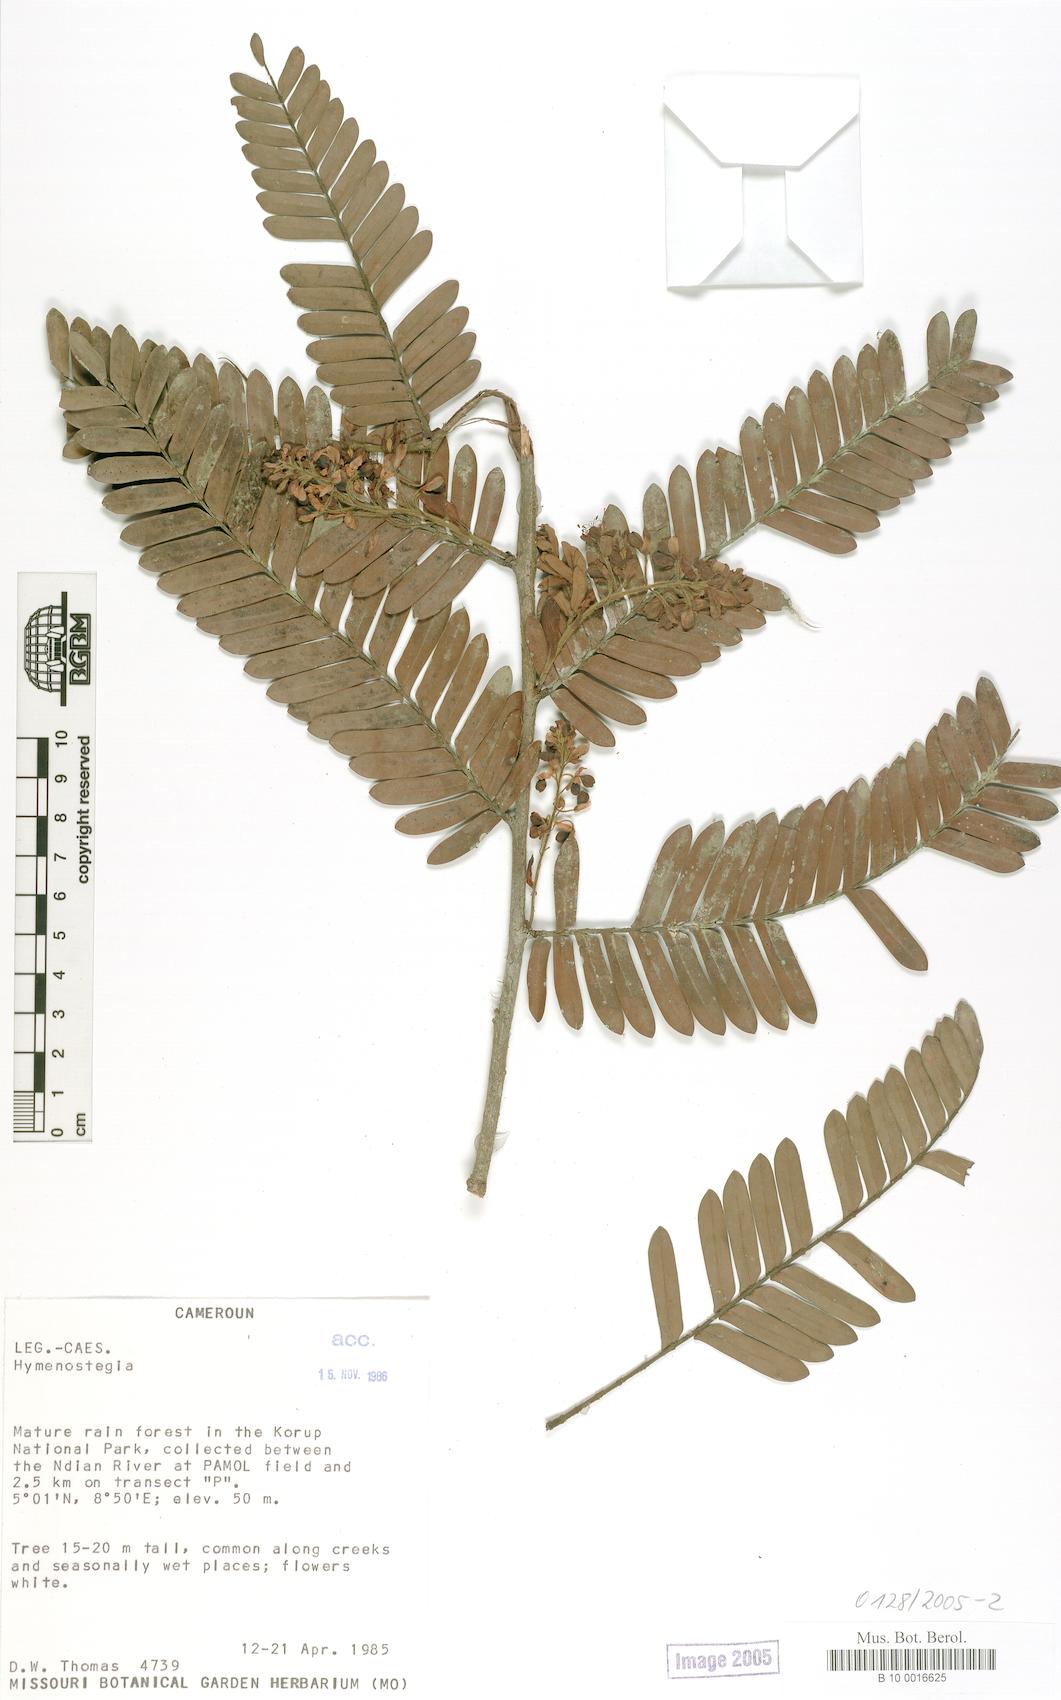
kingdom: Plantae
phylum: Tracheophyta
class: Magnoliopsida
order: Fabales
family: Fabaceae
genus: Hymenostegia
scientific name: Hymenostegia
